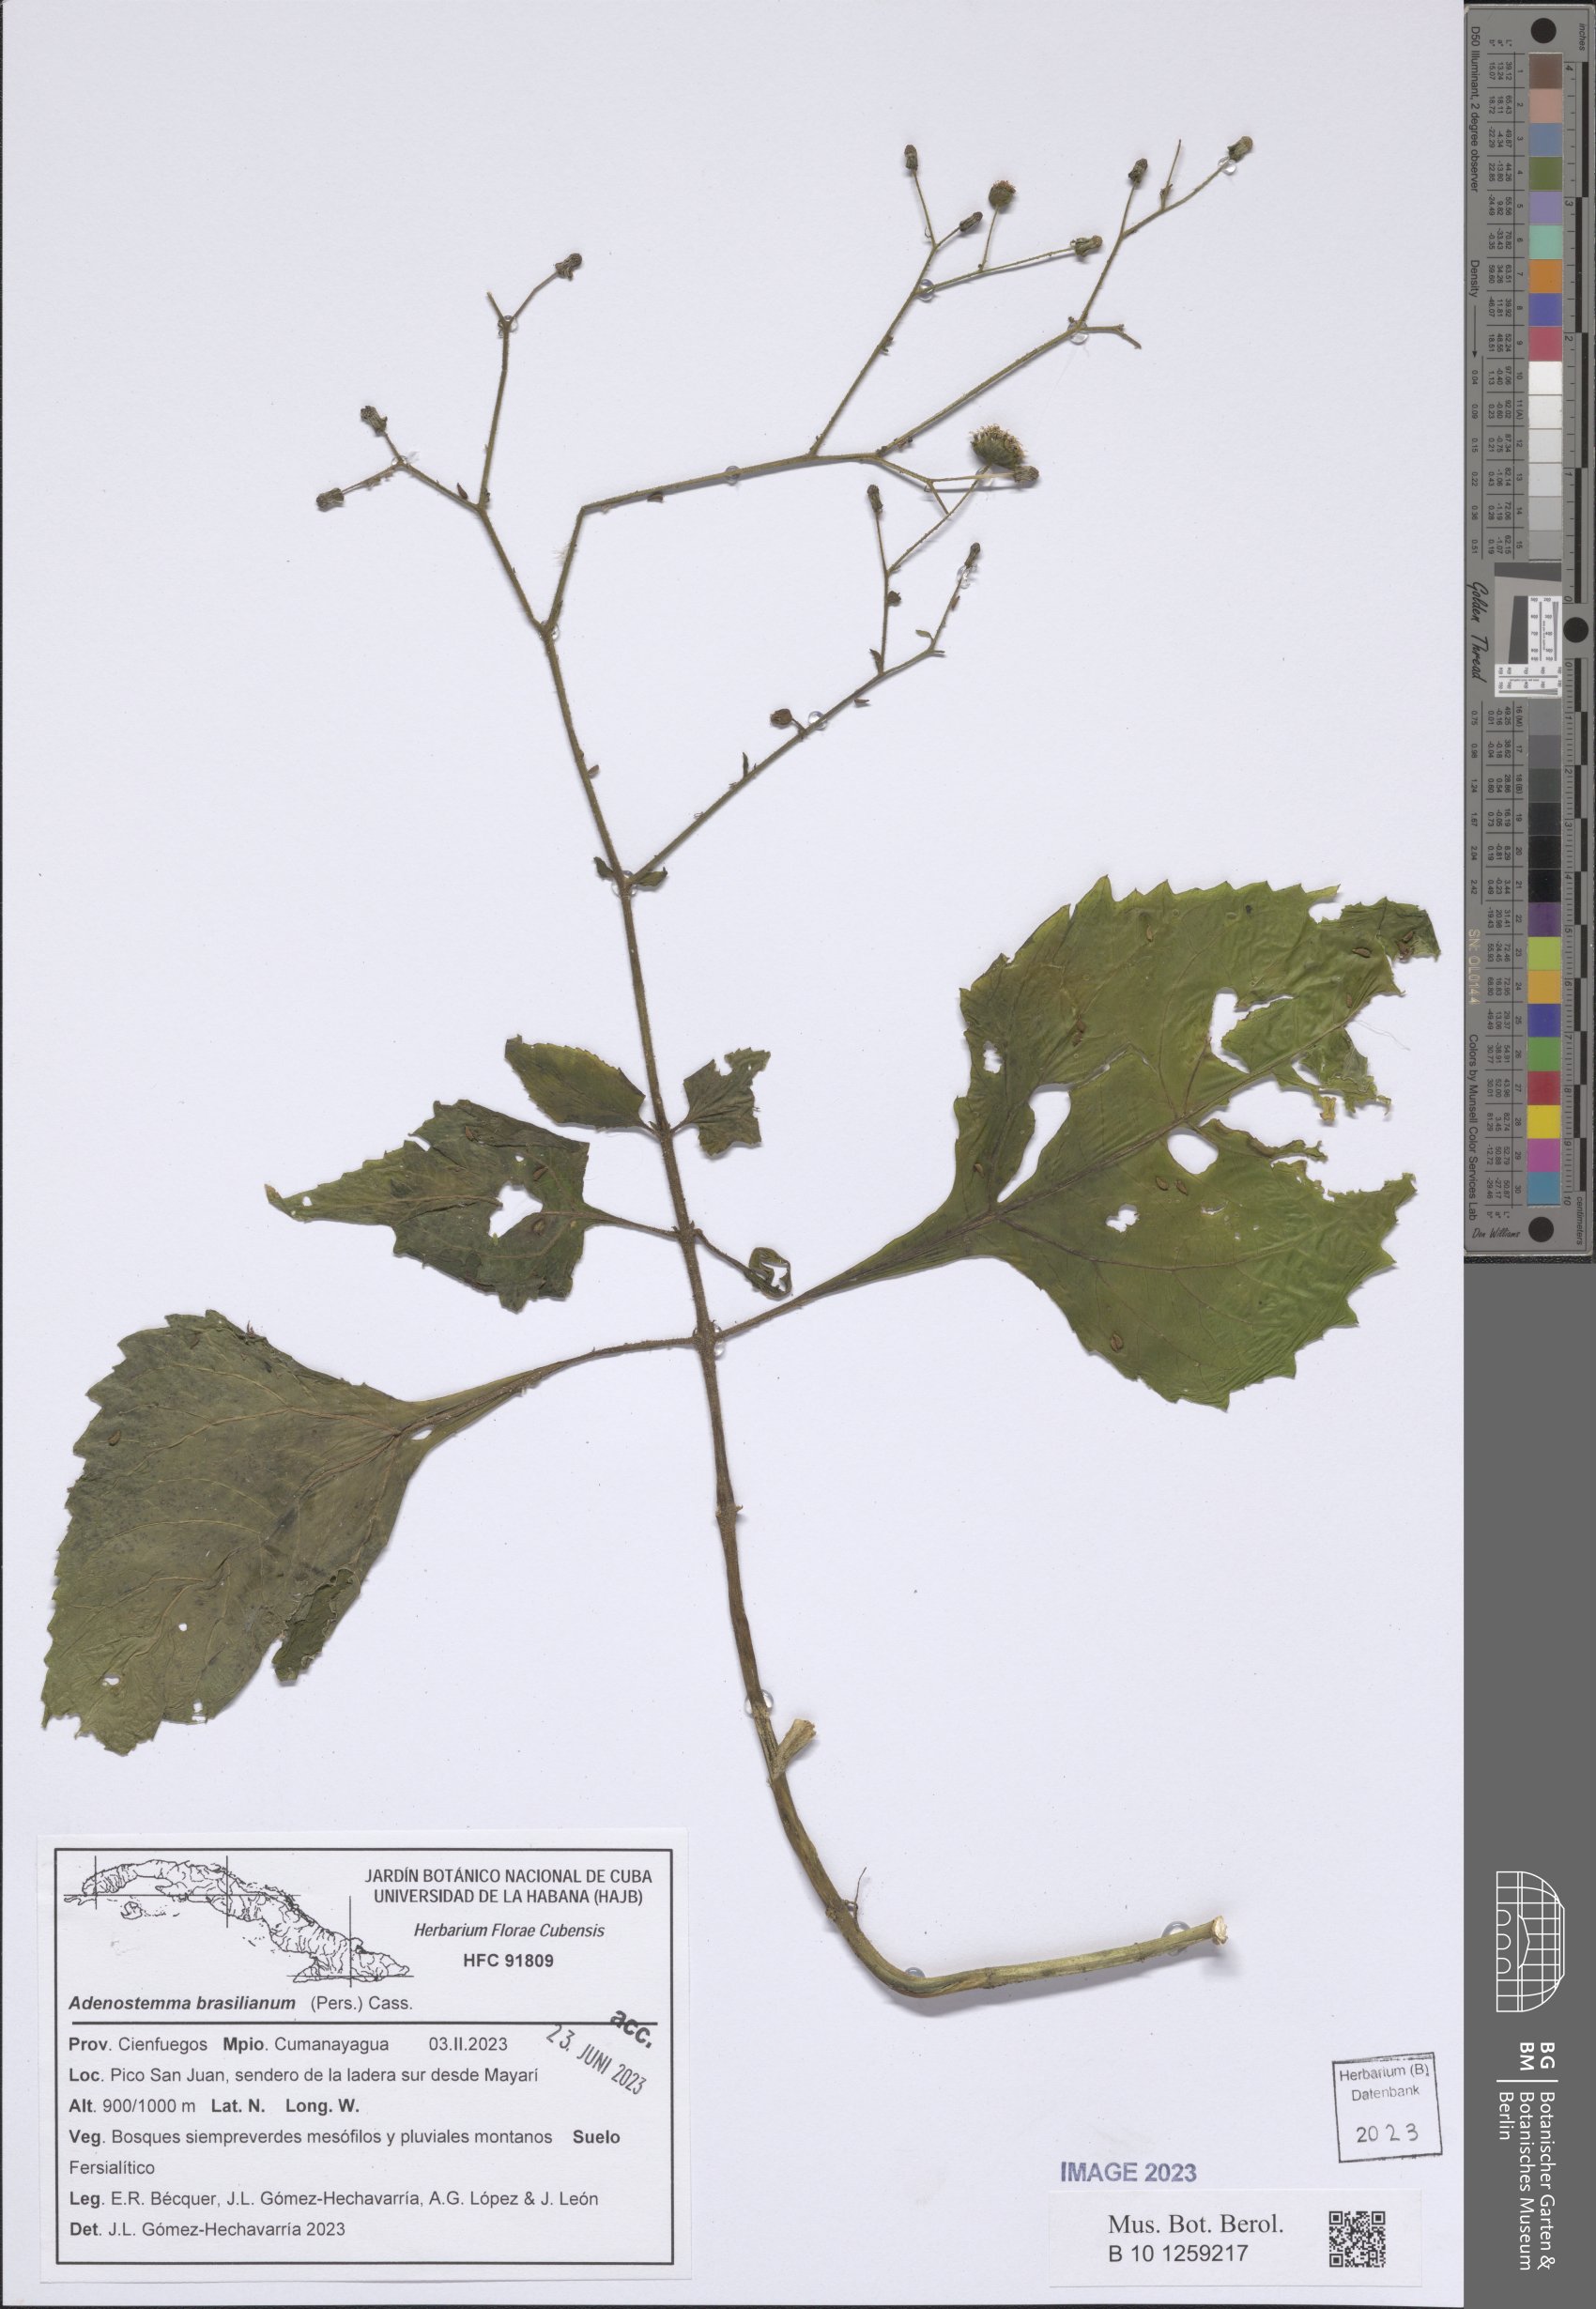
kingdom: Plantae
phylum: Tracheophyta
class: Magnoliopsida
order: Asterales
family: Asteraceae
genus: Adenostemma
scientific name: Adenostemma brasilianum
